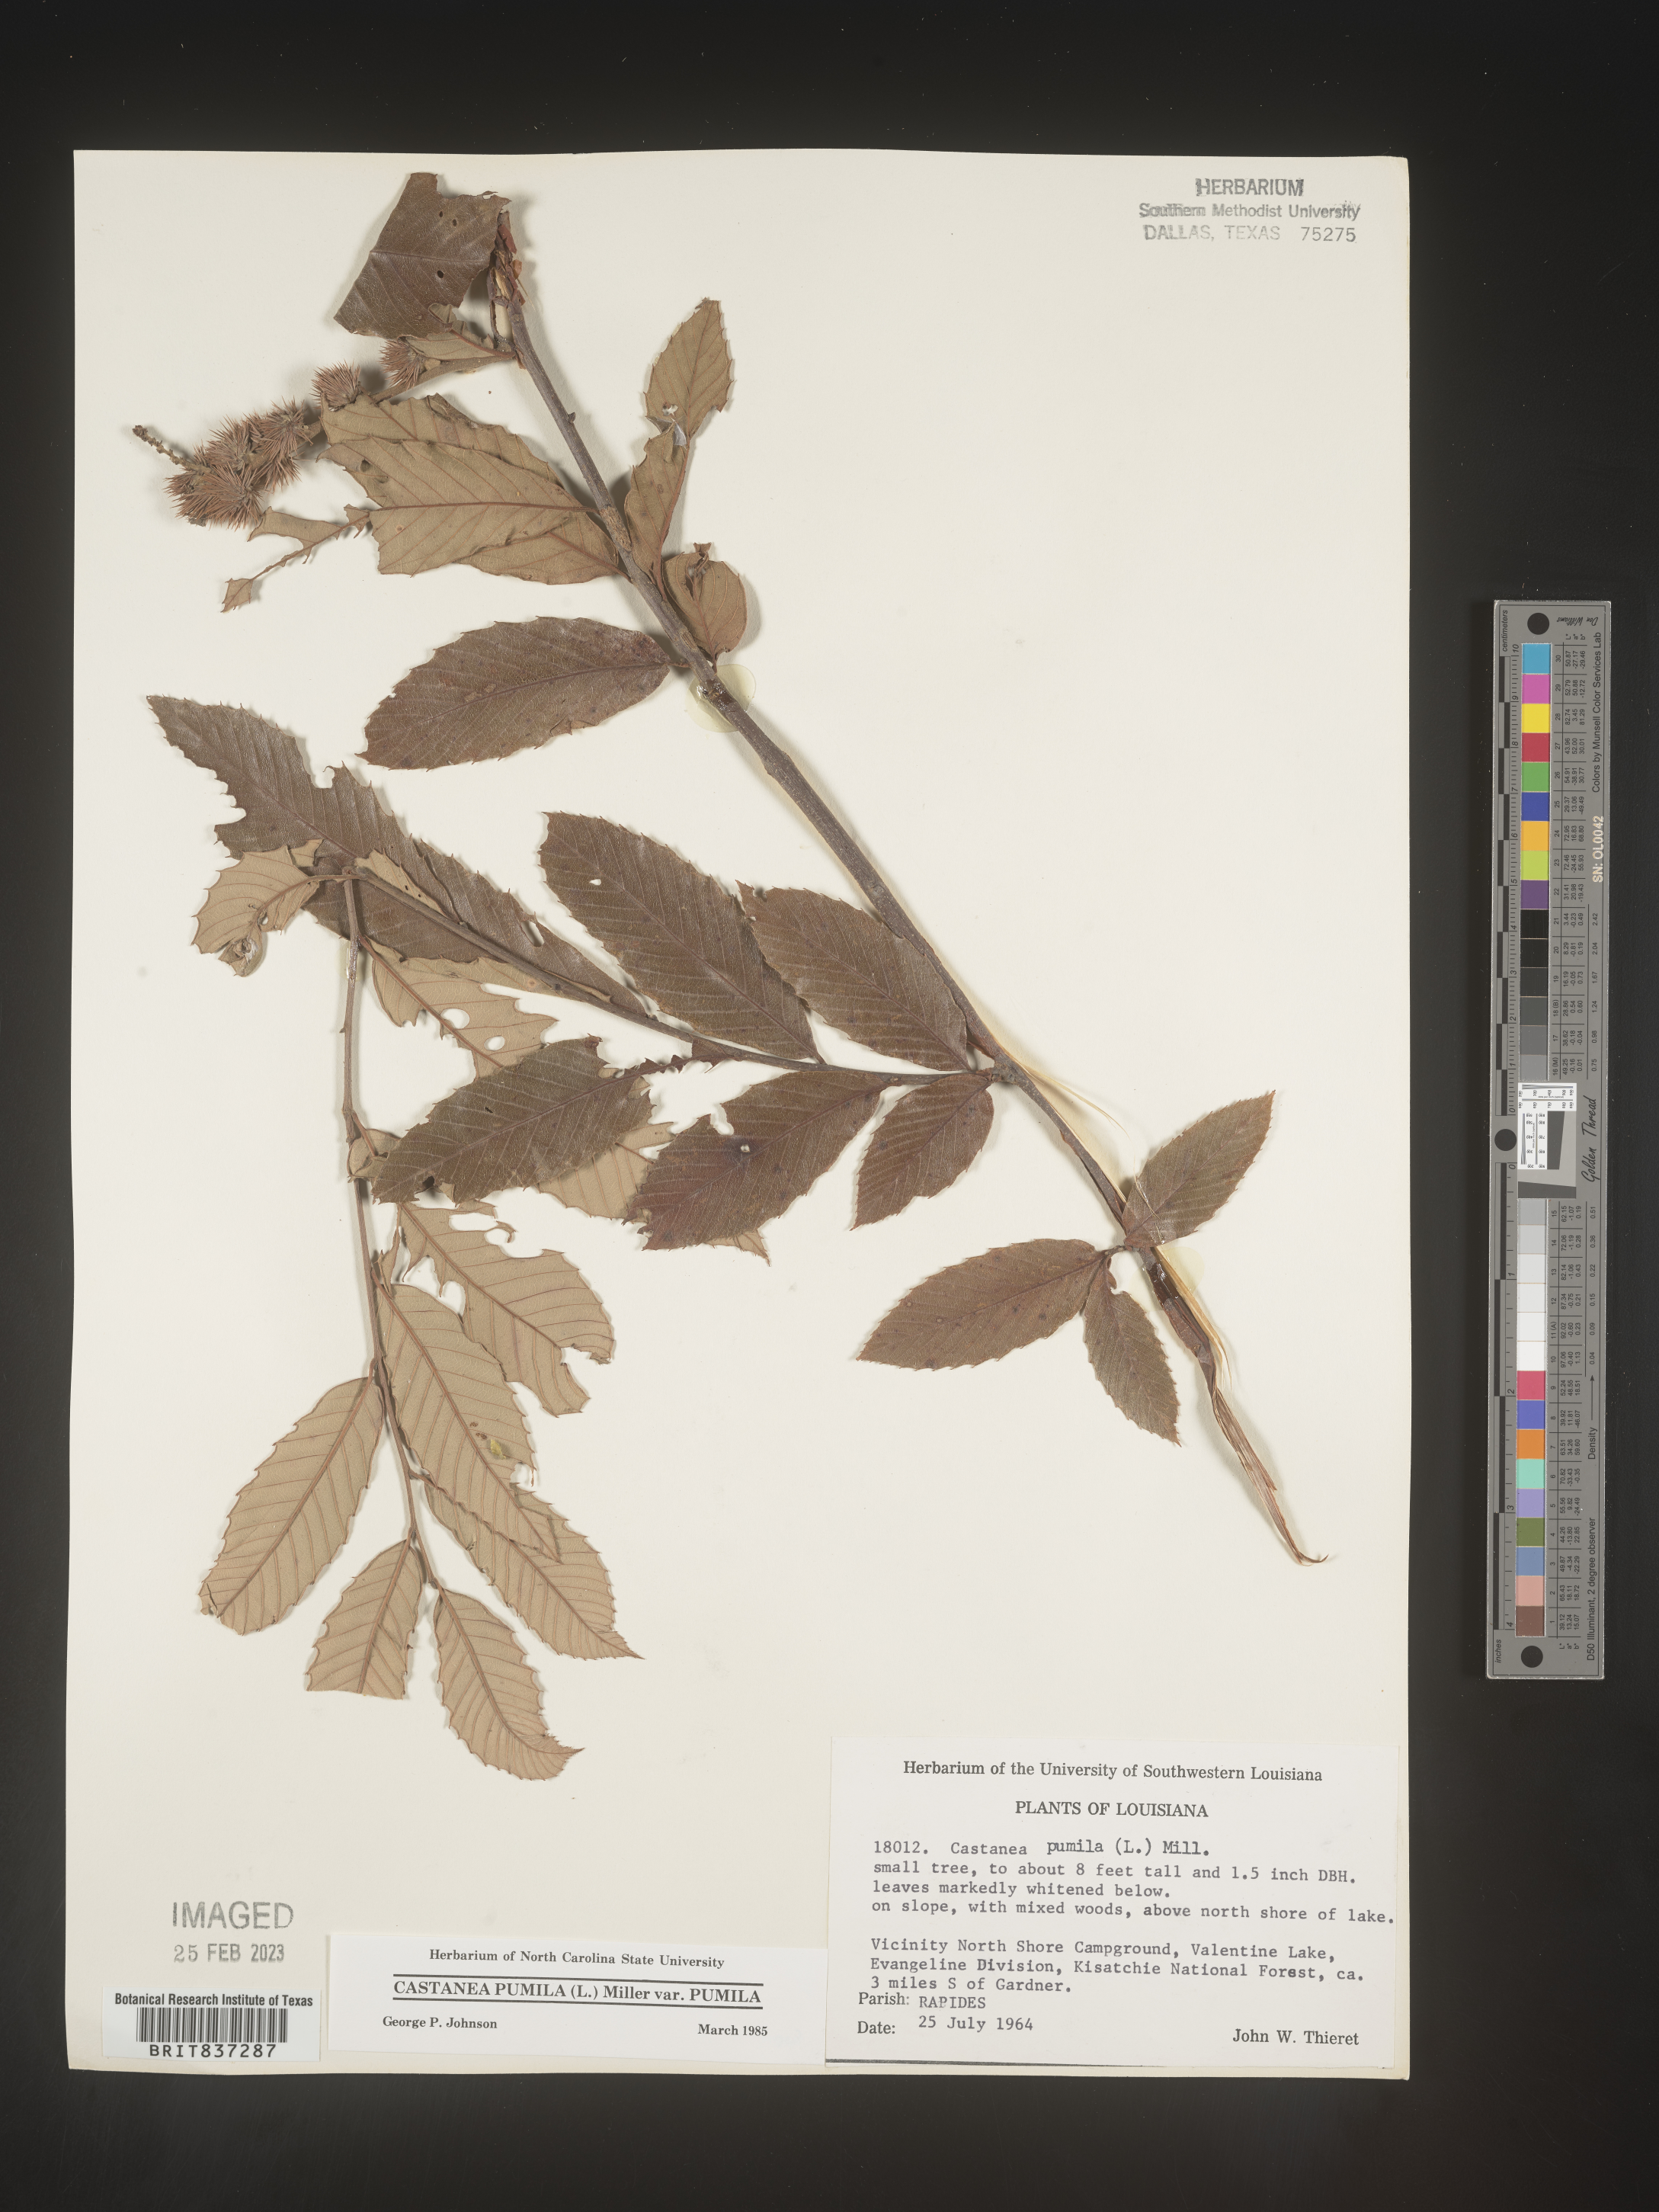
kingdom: Plantae
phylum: Tracheophyta
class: Magnoliopsida
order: Fagales
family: Fagaceae
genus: Castanea
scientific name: Castanea pumila
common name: Chinkapin
